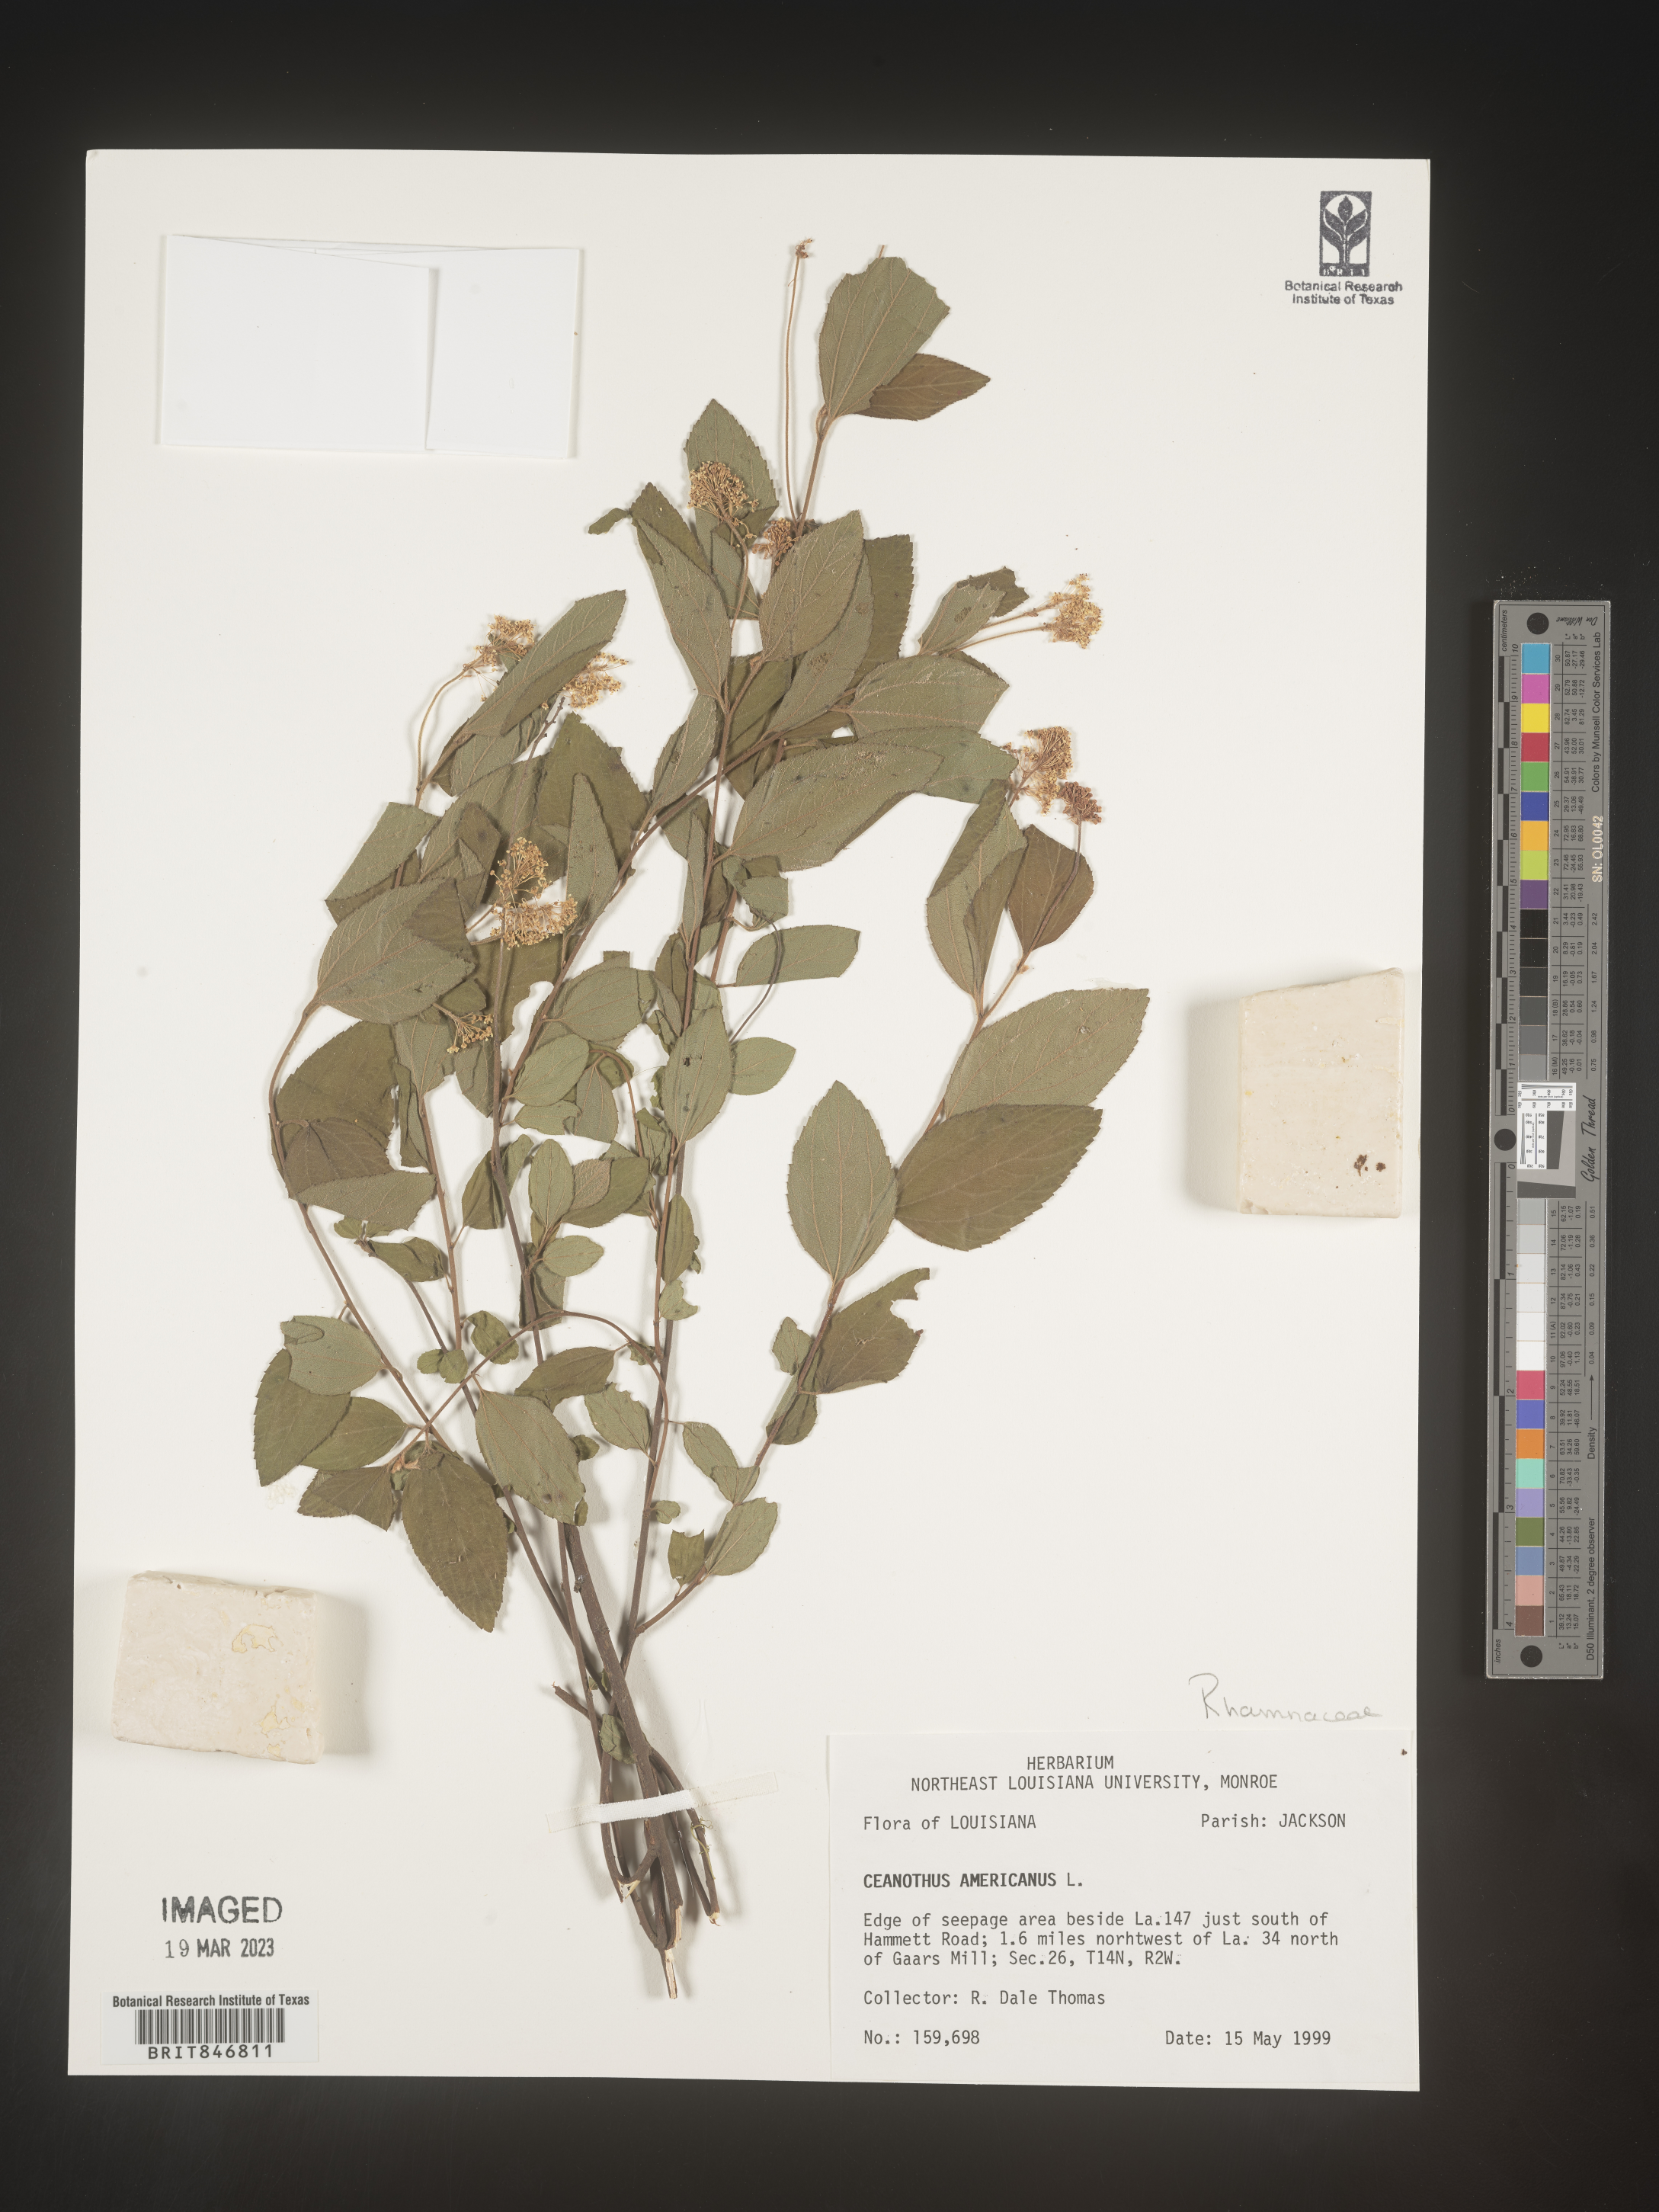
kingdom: Plantae
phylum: Tracheophyta
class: Magnoliopsida
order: Rosales
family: Rhamnaceae
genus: Ceanothus
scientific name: Ceanothus americanus
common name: Redroot
